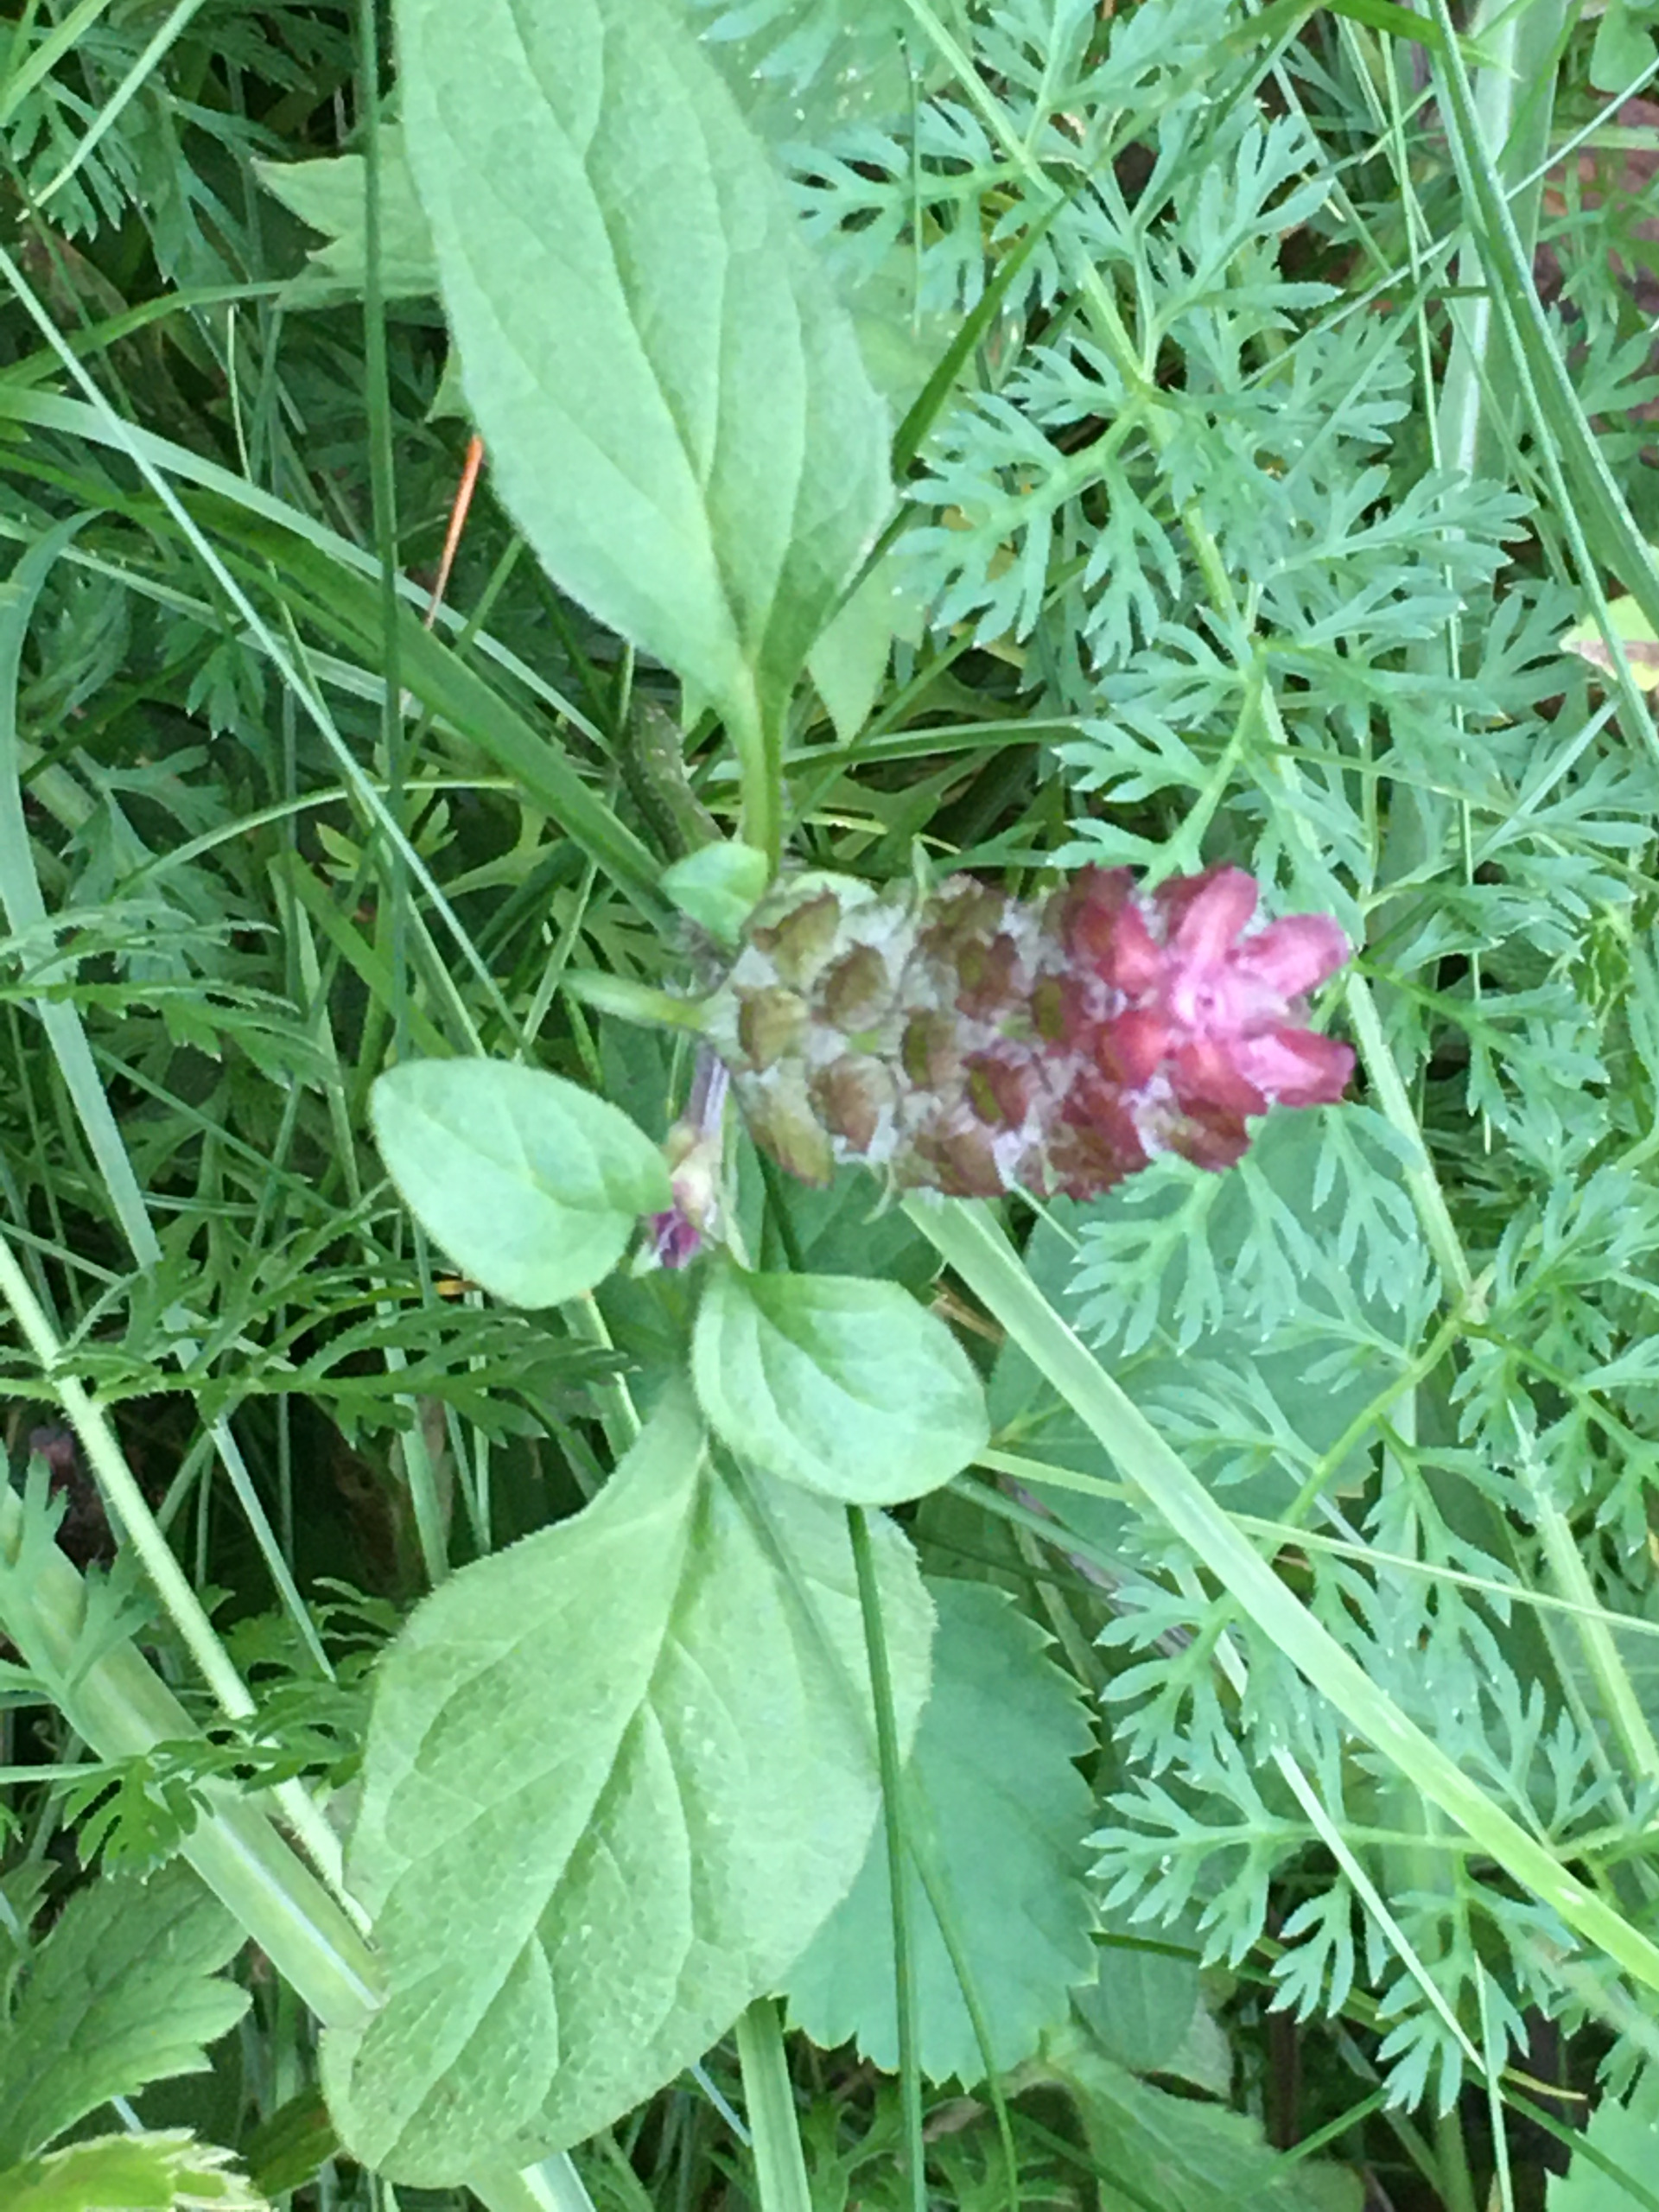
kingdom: Plantae
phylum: Tracheophyta
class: Magnoliopsida
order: Lamiales
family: Lamiaceae
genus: Prunella
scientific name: Prunella vulgaris
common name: Almindelig brunelle
